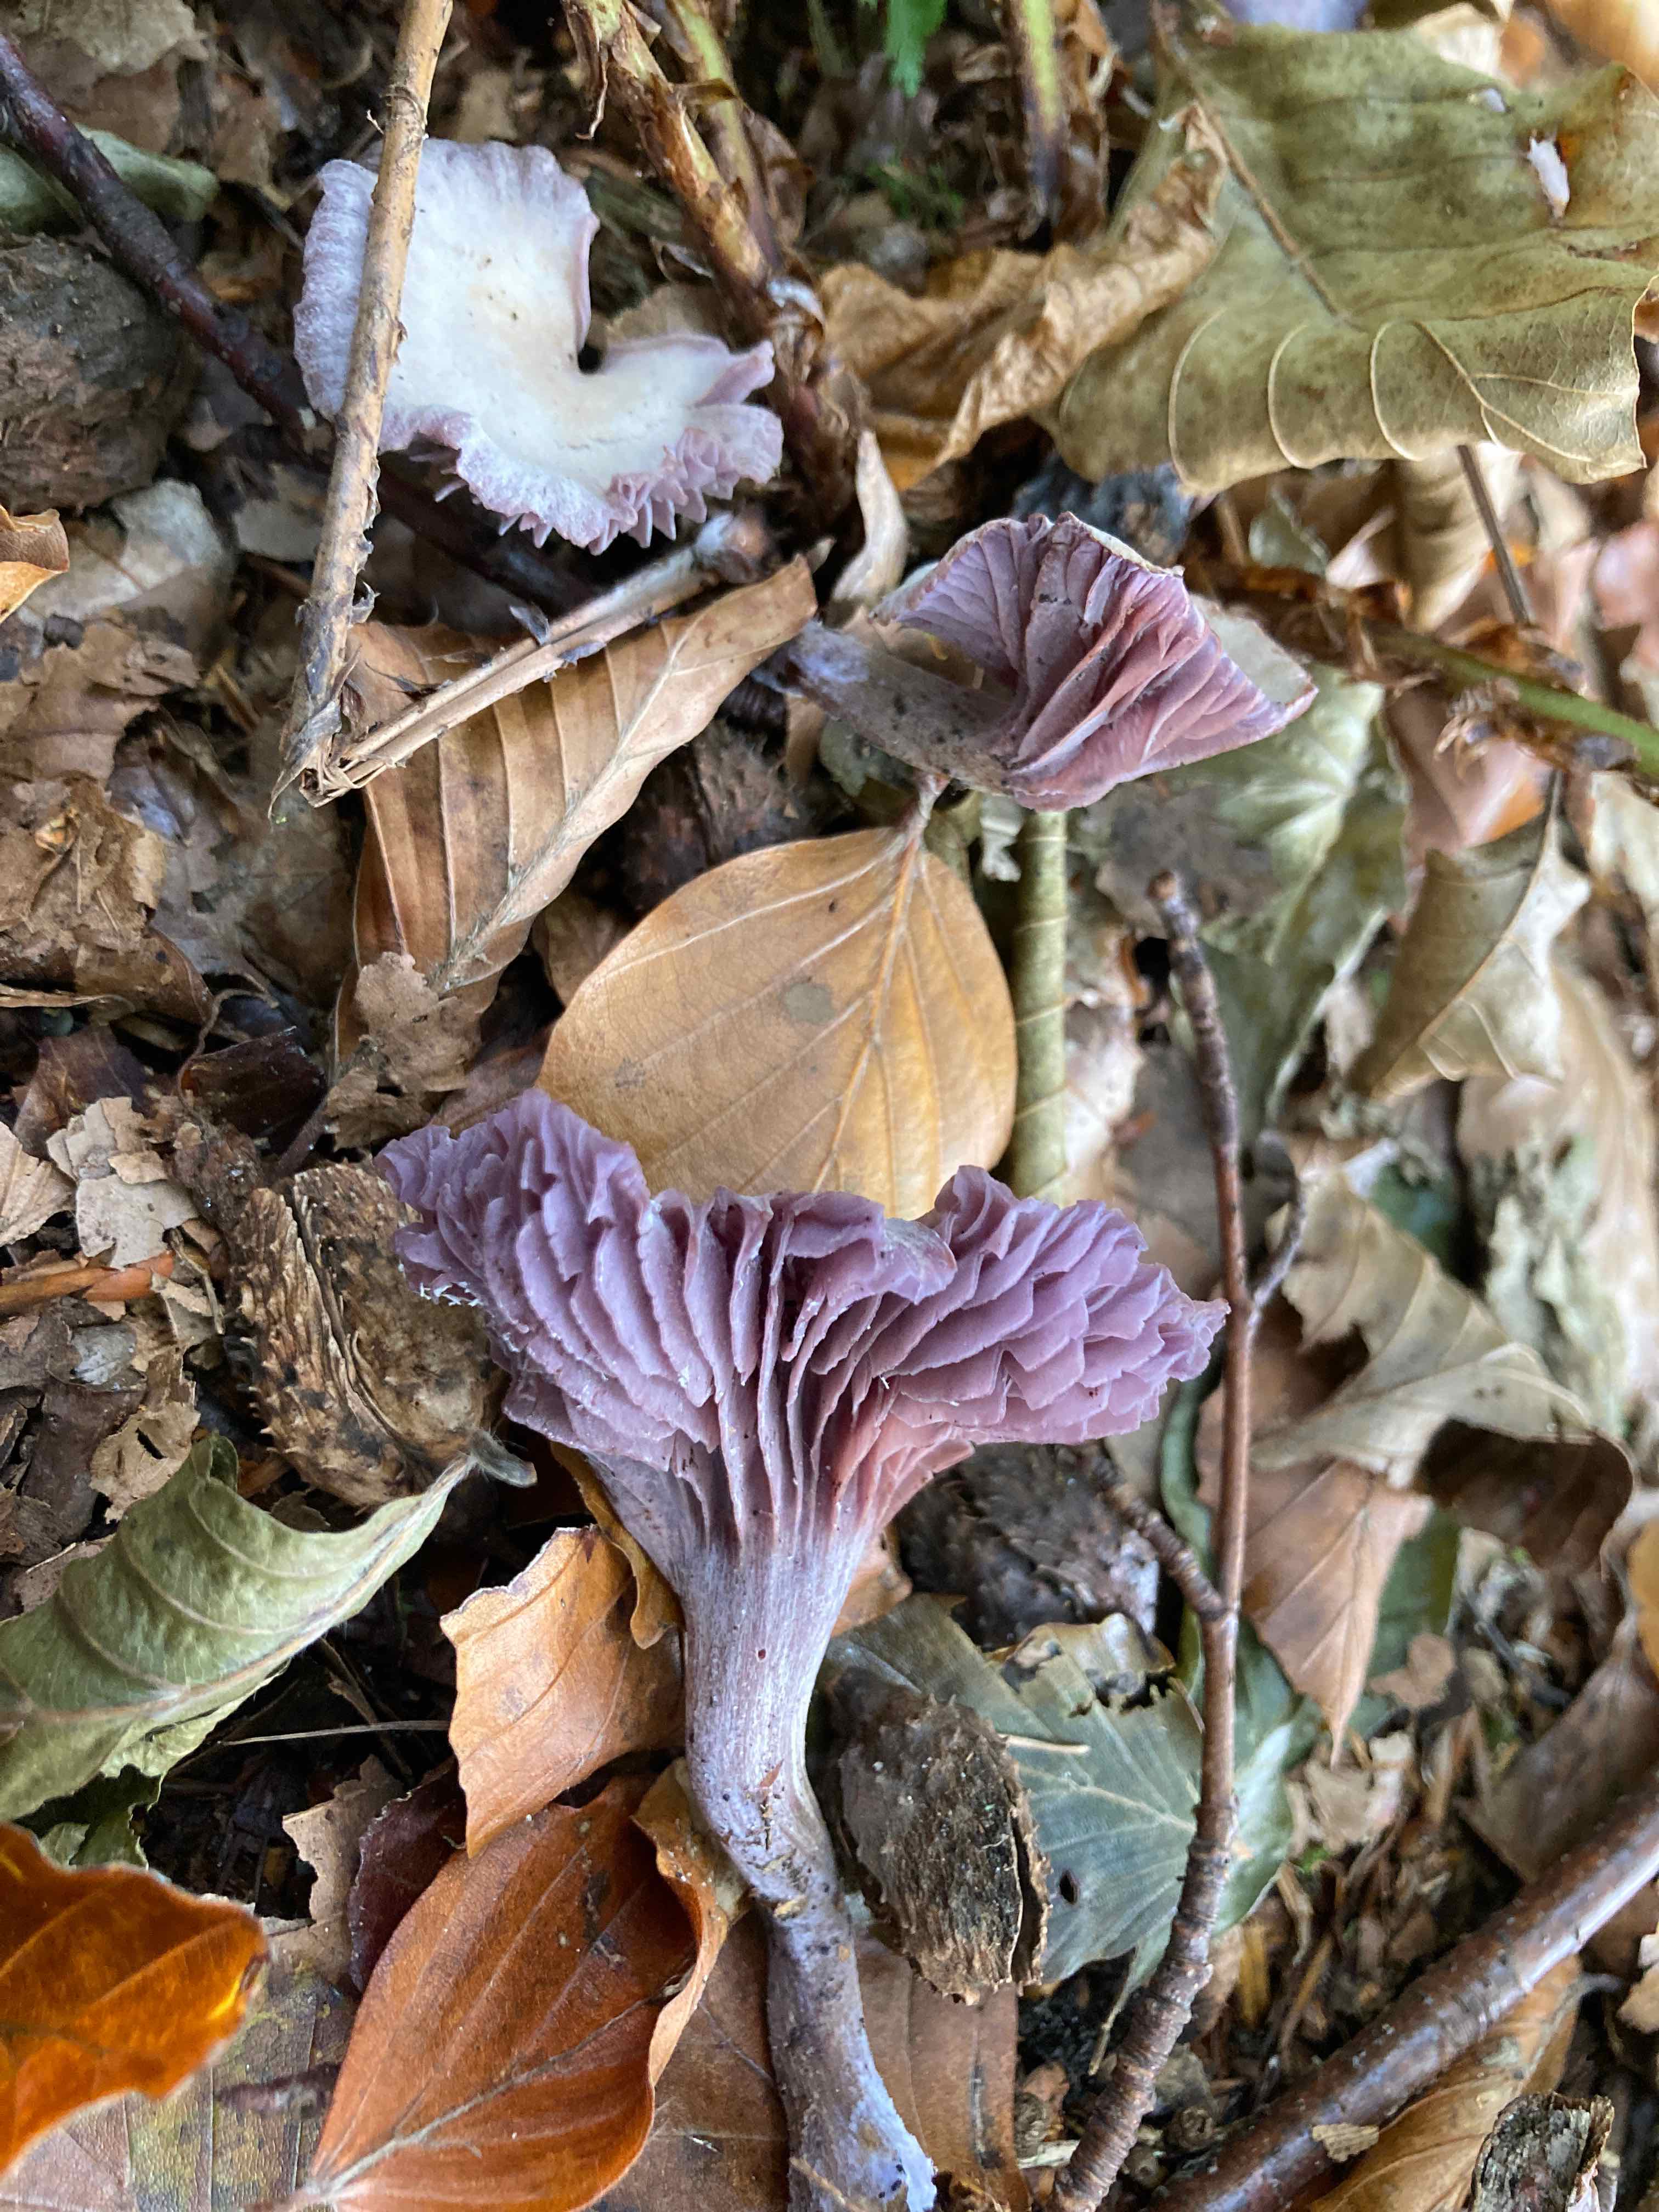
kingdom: Fungi
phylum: Basidiomycota
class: Agaricomycetes
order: Agaricales
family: Hydnangiaceae
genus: Laccaria
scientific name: Laccaria amethystina
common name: violet ametysthat
